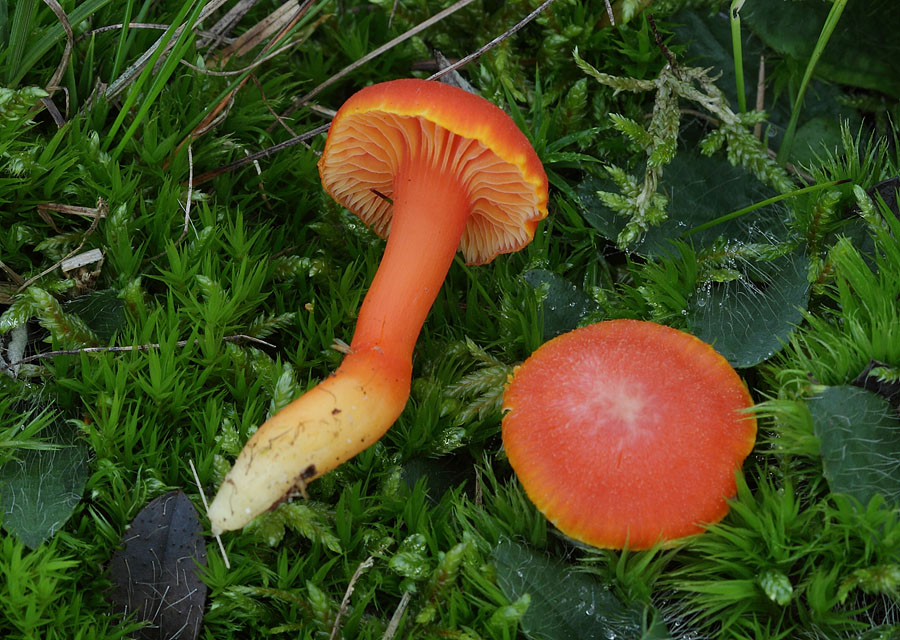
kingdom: Fungi
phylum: Basidiomycota
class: Agaricomycetes
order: Agaricales
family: Hygrophoraceae
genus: Hygrocybe
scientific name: Hygrocybe miniata
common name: mønje-vokshat
